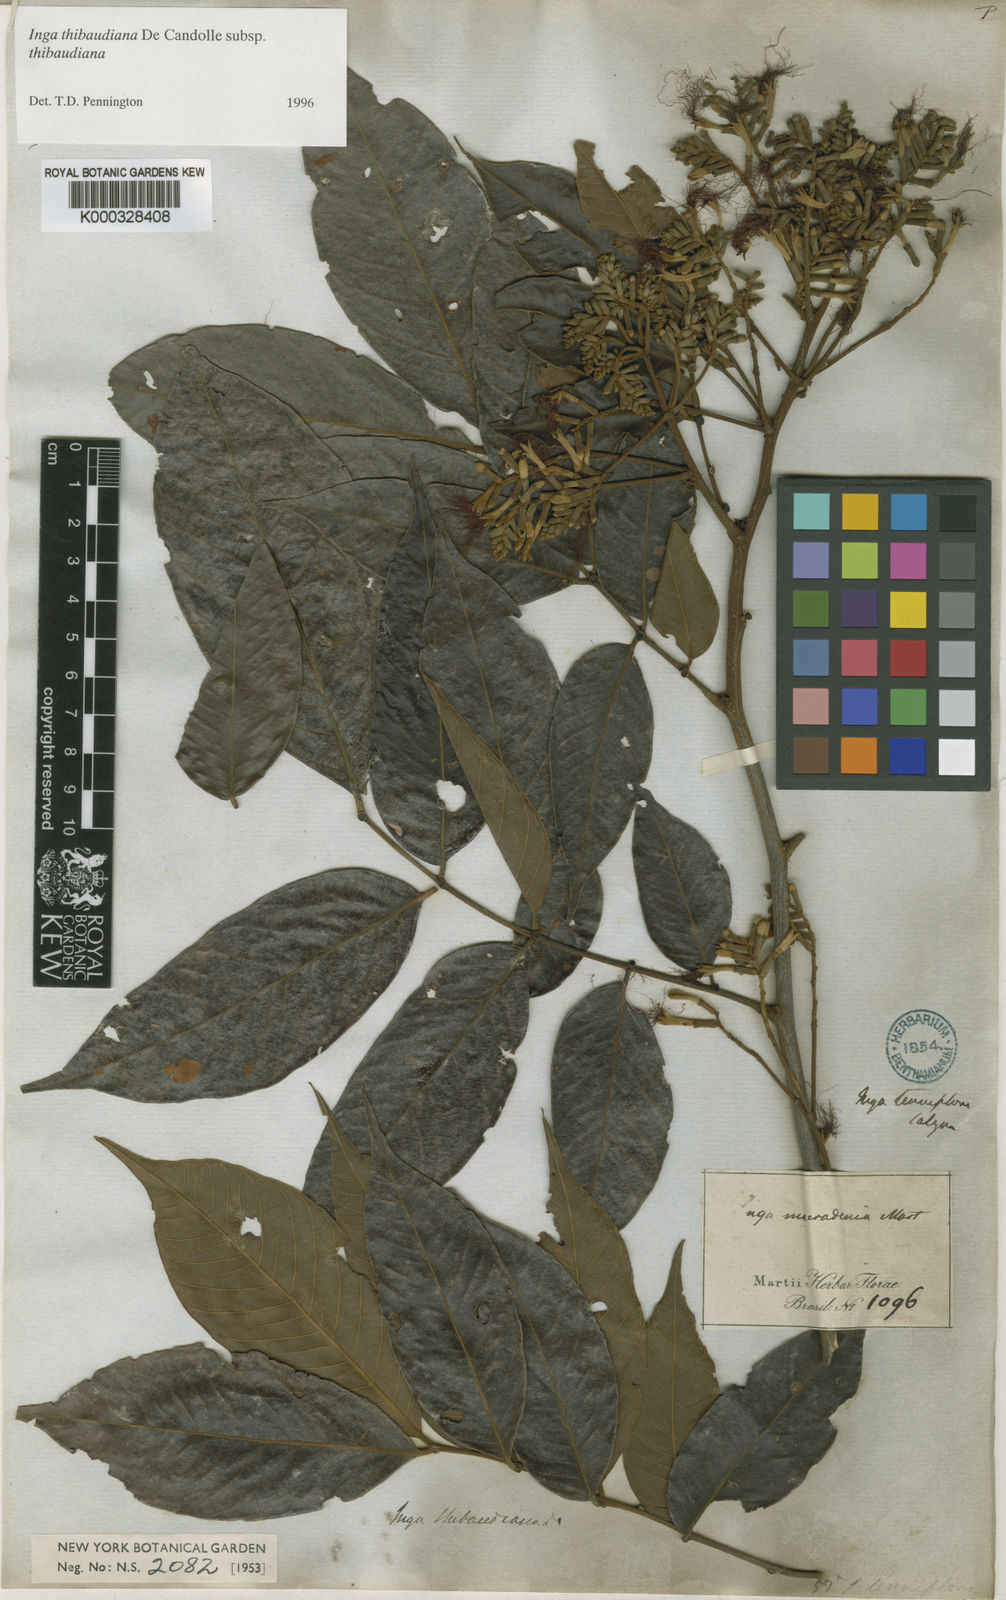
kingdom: Plantae
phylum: Tracheophyta
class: Magnoliopsida
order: Fabales
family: Fabaceae
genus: Inga
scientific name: Inga thibaudiana
